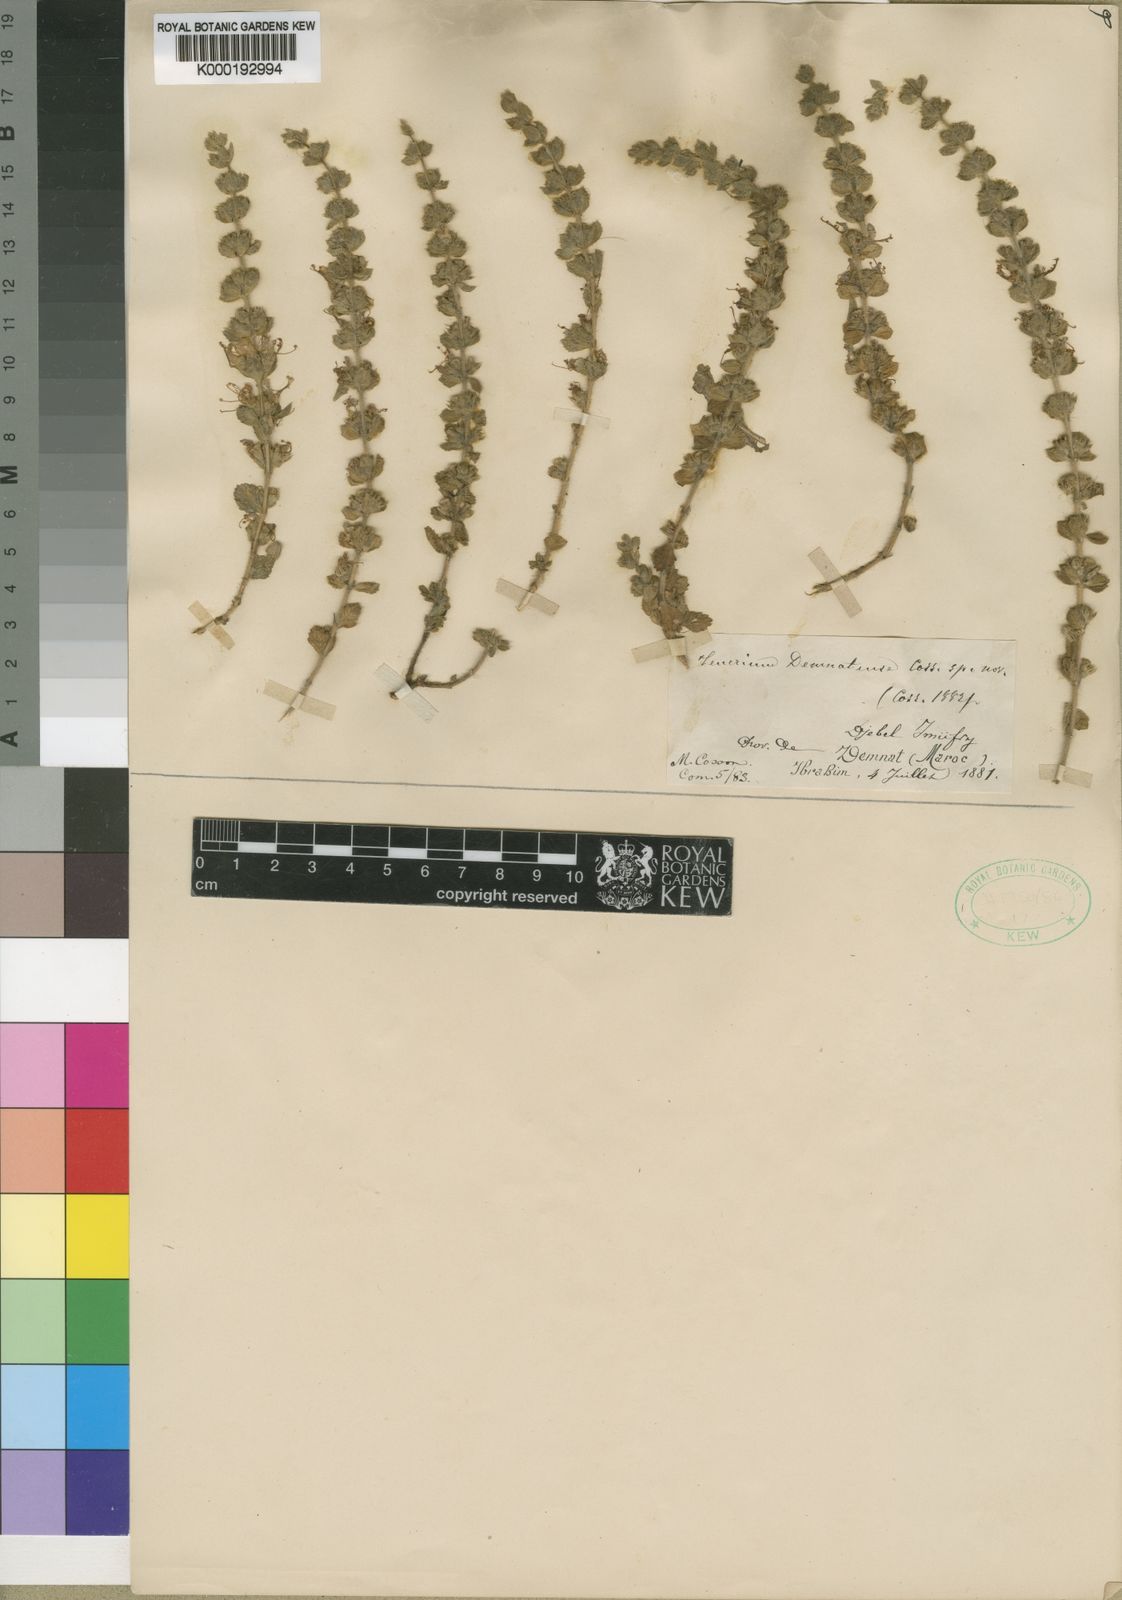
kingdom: Plantae
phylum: Tracheophyta
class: Magnoliopsida
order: Lamiales
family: Lamiaceae
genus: Teucrium
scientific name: Teucrium
